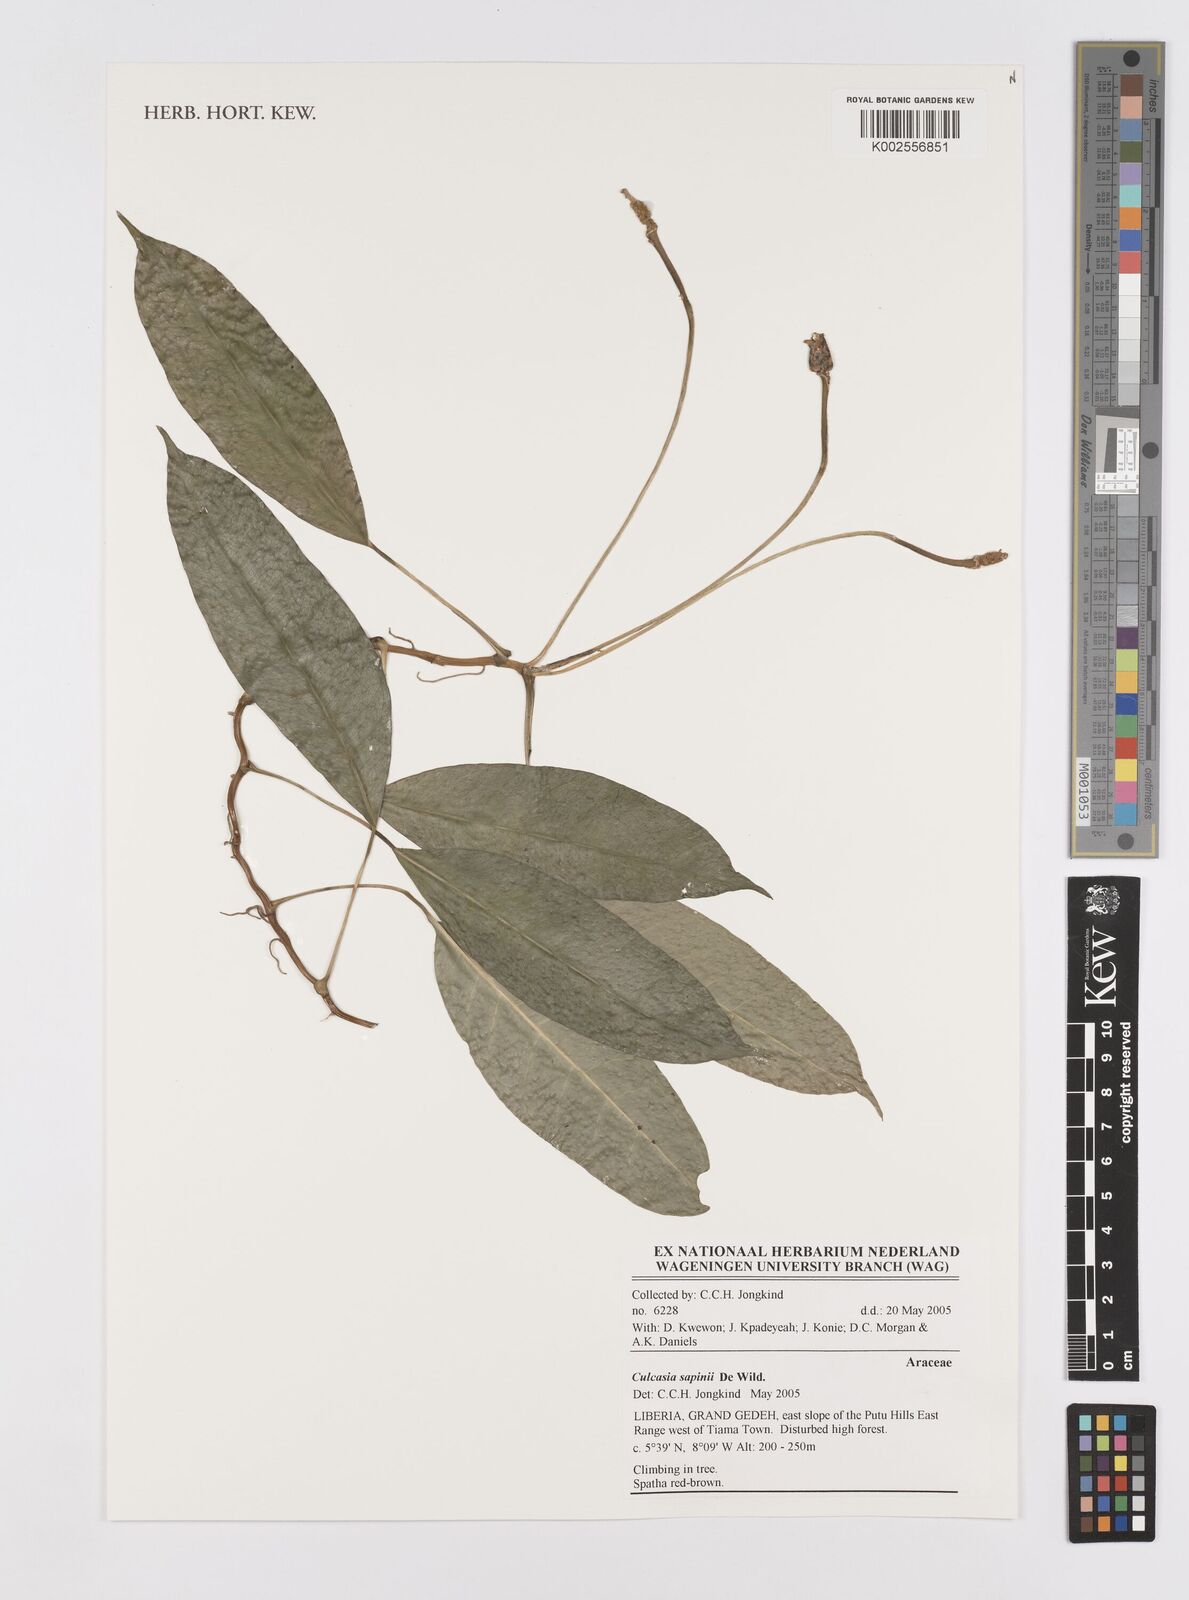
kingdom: Plantae
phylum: Tracheophyta
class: Liliopsida
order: Alismatales
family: Araceae
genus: Culcasia
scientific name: Culcasia seretii
